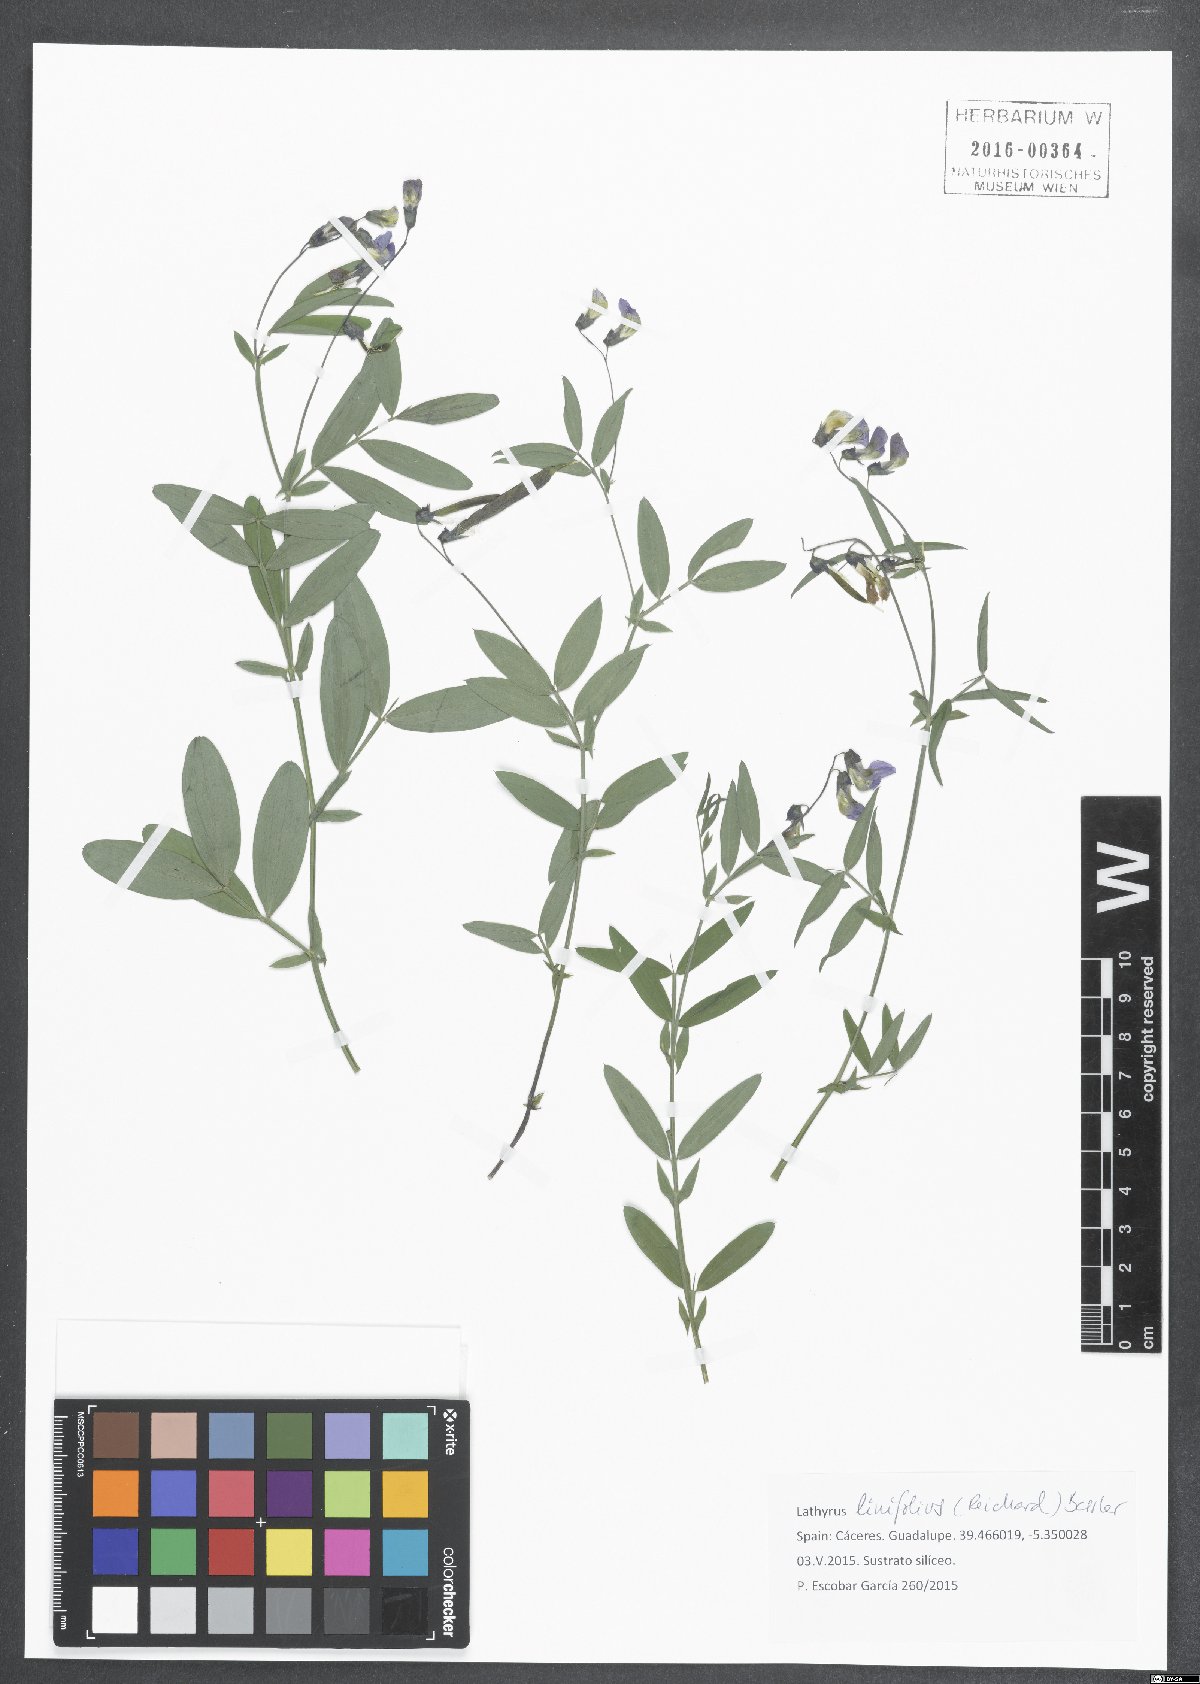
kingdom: Plantae
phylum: Tracheophyta
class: Magnoliopsida
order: Fabales
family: Fabaceae
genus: Lathyrus
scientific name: Lathyrus linifolius
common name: Bitter-vetch
